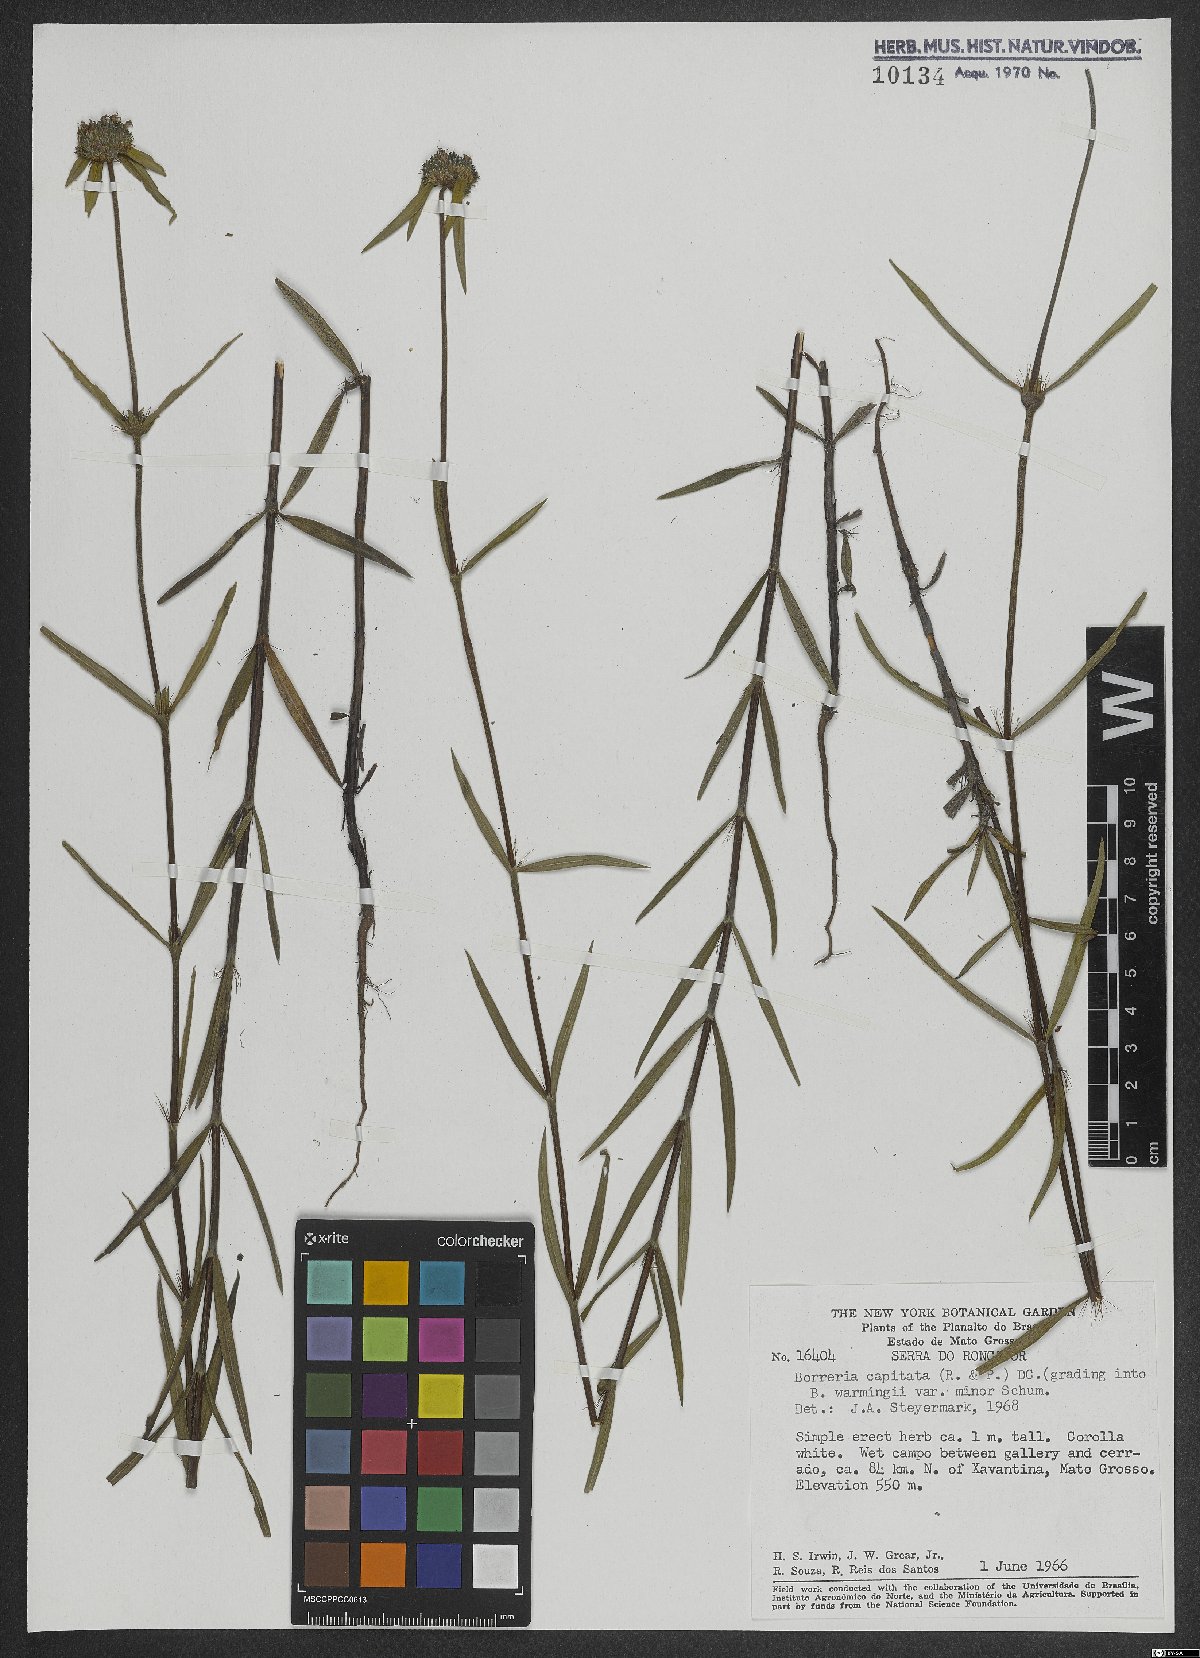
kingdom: Plantae
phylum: Tracheophyta
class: Magnoliopsida
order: Gentianales
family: Rubiaceae
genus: Spermacoce
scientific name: Spermacoce capitata
